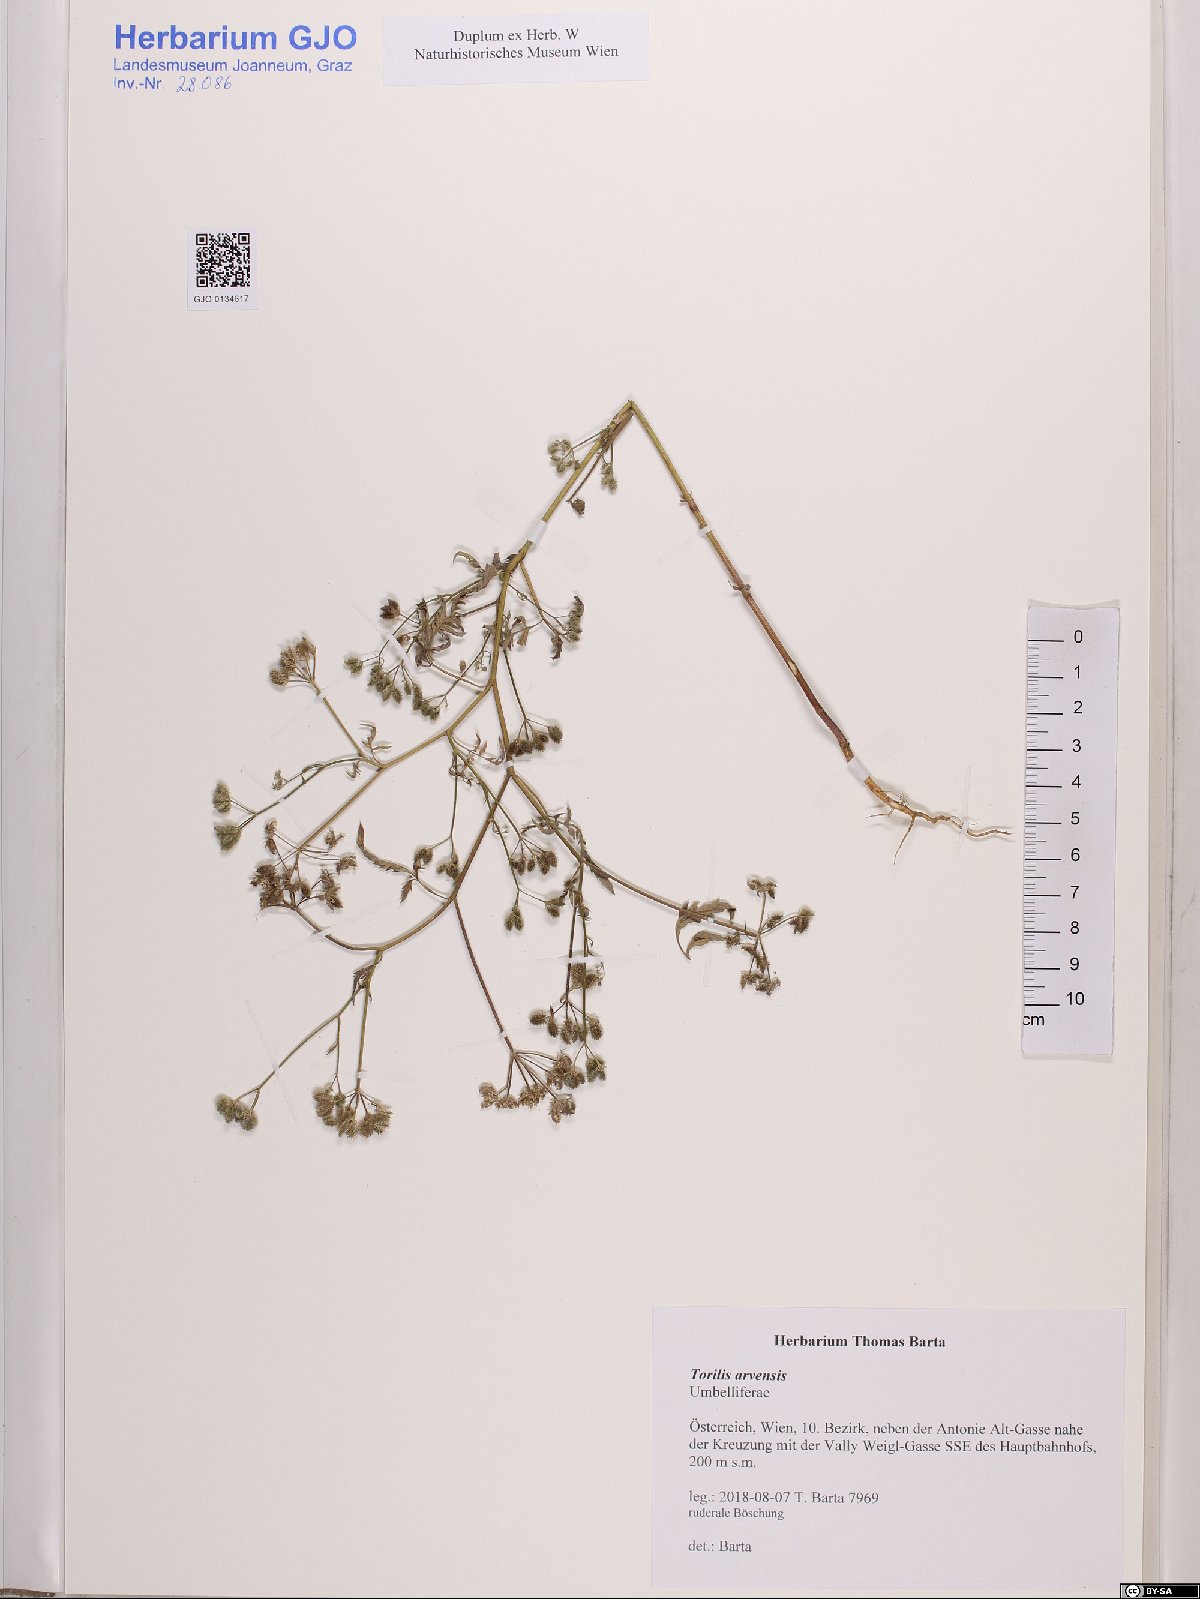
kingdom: Plantae
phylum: Tracheophyta
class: Magnoliopsida
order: Apiales
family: Apiaceae
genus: Torilis
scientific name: Torilis arvensis
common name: Spreading hedge-parsley
